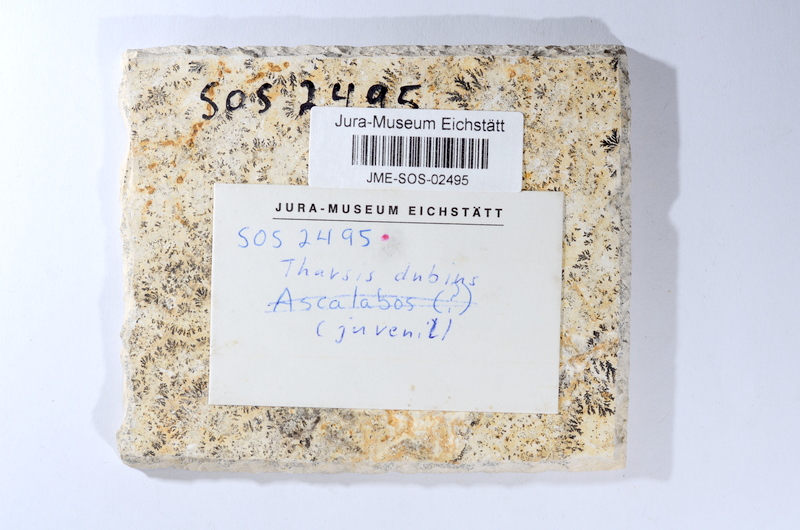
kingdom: Animalia
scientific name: Animalia
